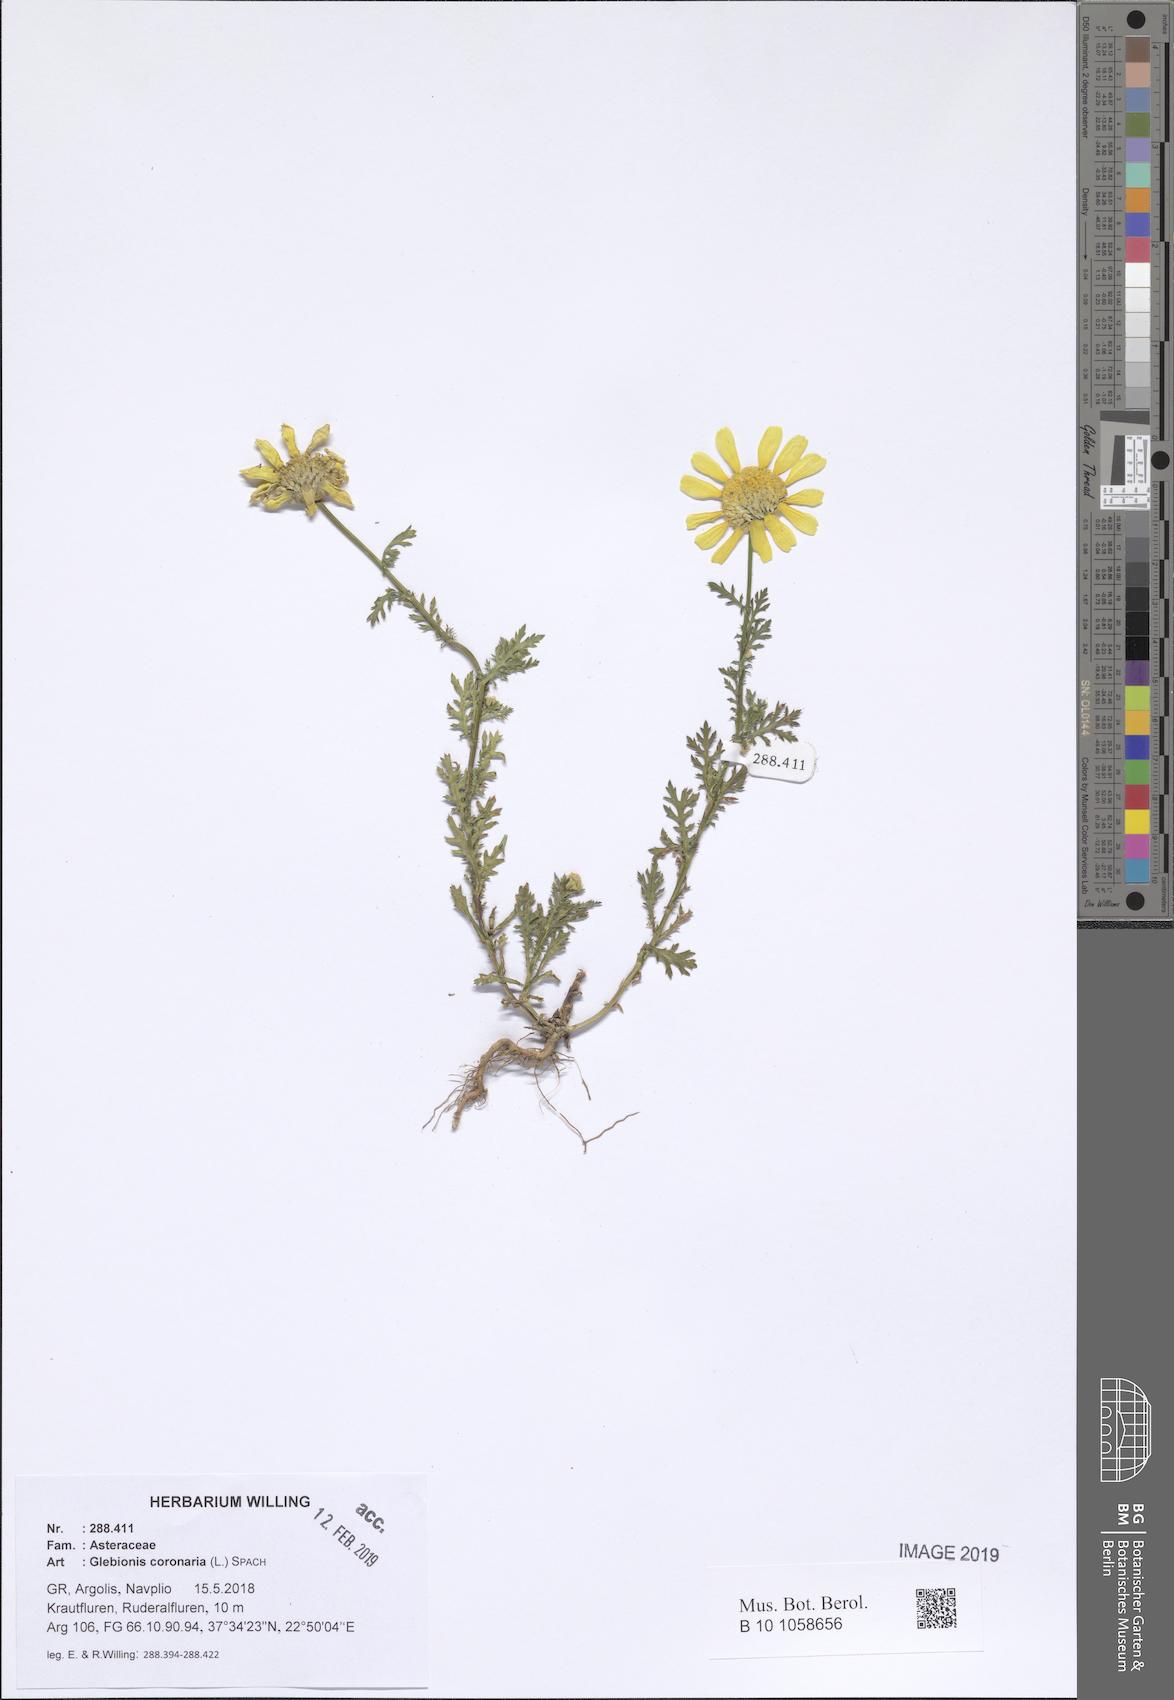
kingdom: Plantae
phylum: Tracheophyta
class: Magnoliopsida
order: Asterales
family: Asteraceae
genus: Glebionis
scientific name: Glebionis coronaria
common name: Crowndaisy
